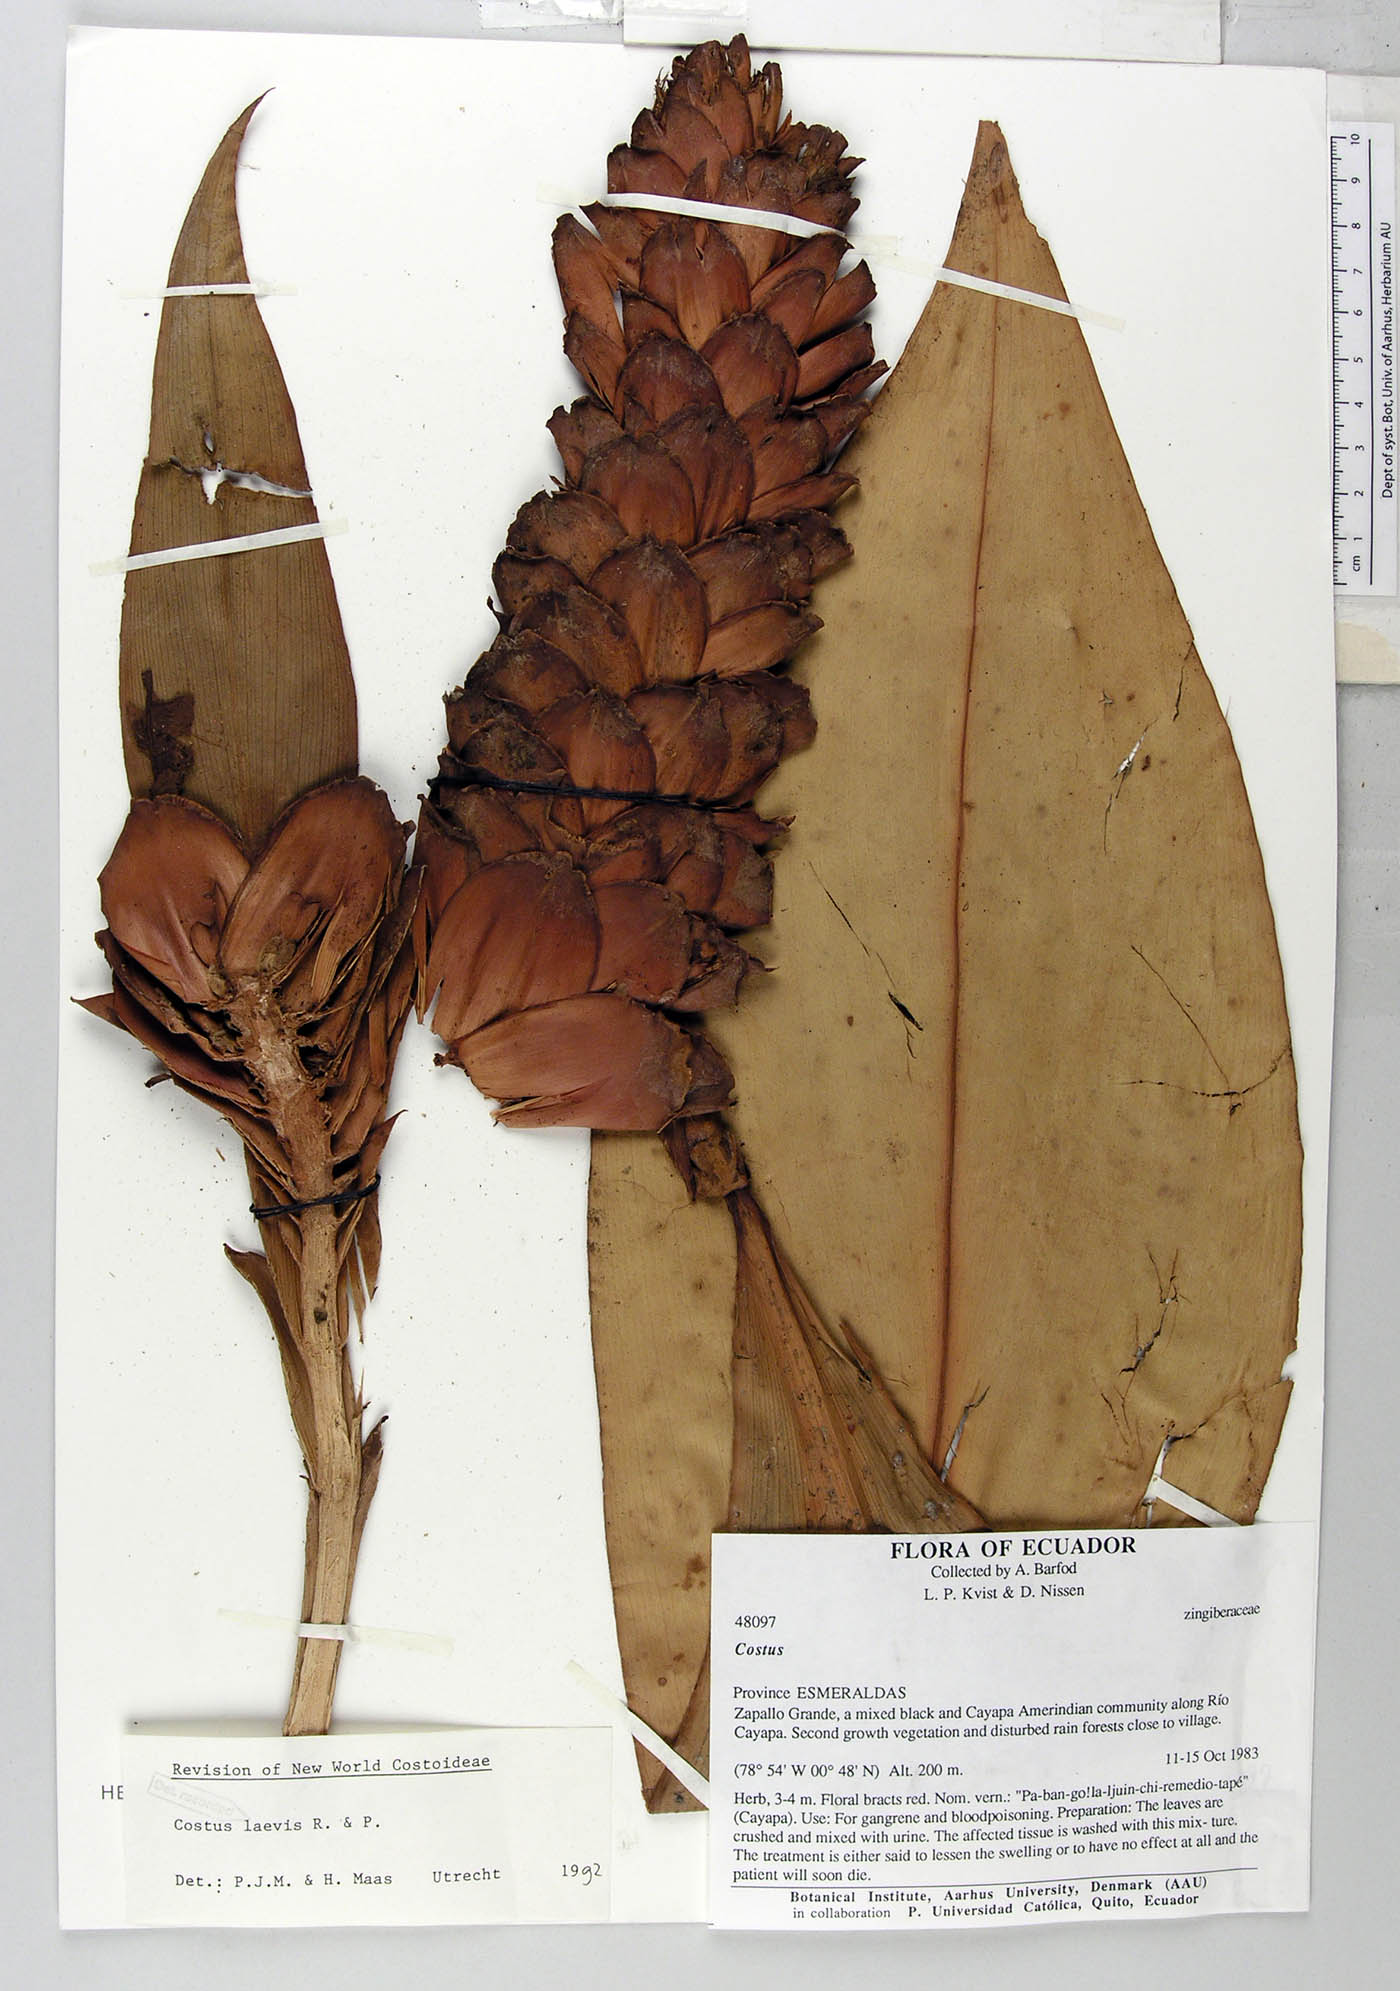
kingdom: Plantae
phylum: Tracheophyta
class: Liliopsida
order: Zingiberales
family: Costaceae
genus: Costus
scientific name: Costus laevis
